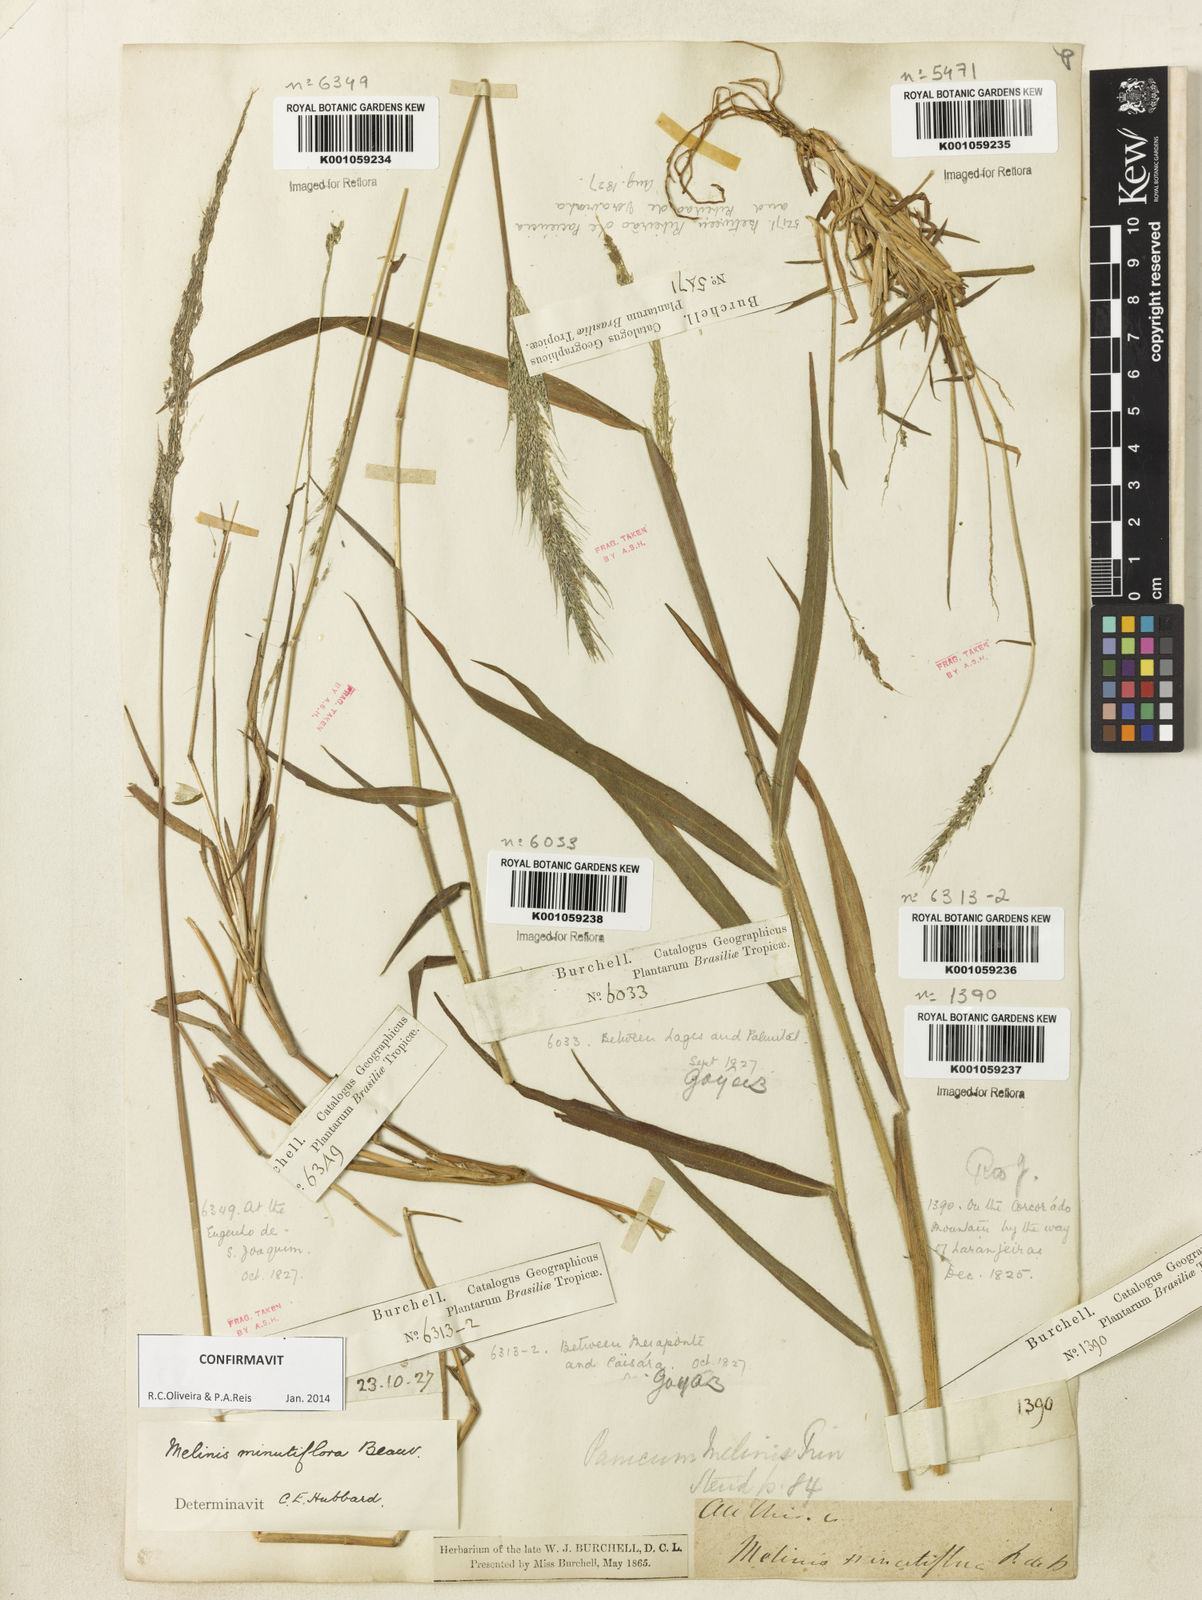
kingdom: Plantae
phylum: Tracheophyta
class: Liliopsida
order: Poales
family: Poaceae
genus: Melinis
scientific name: Melinis minutiflora
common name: Molassesgrass
